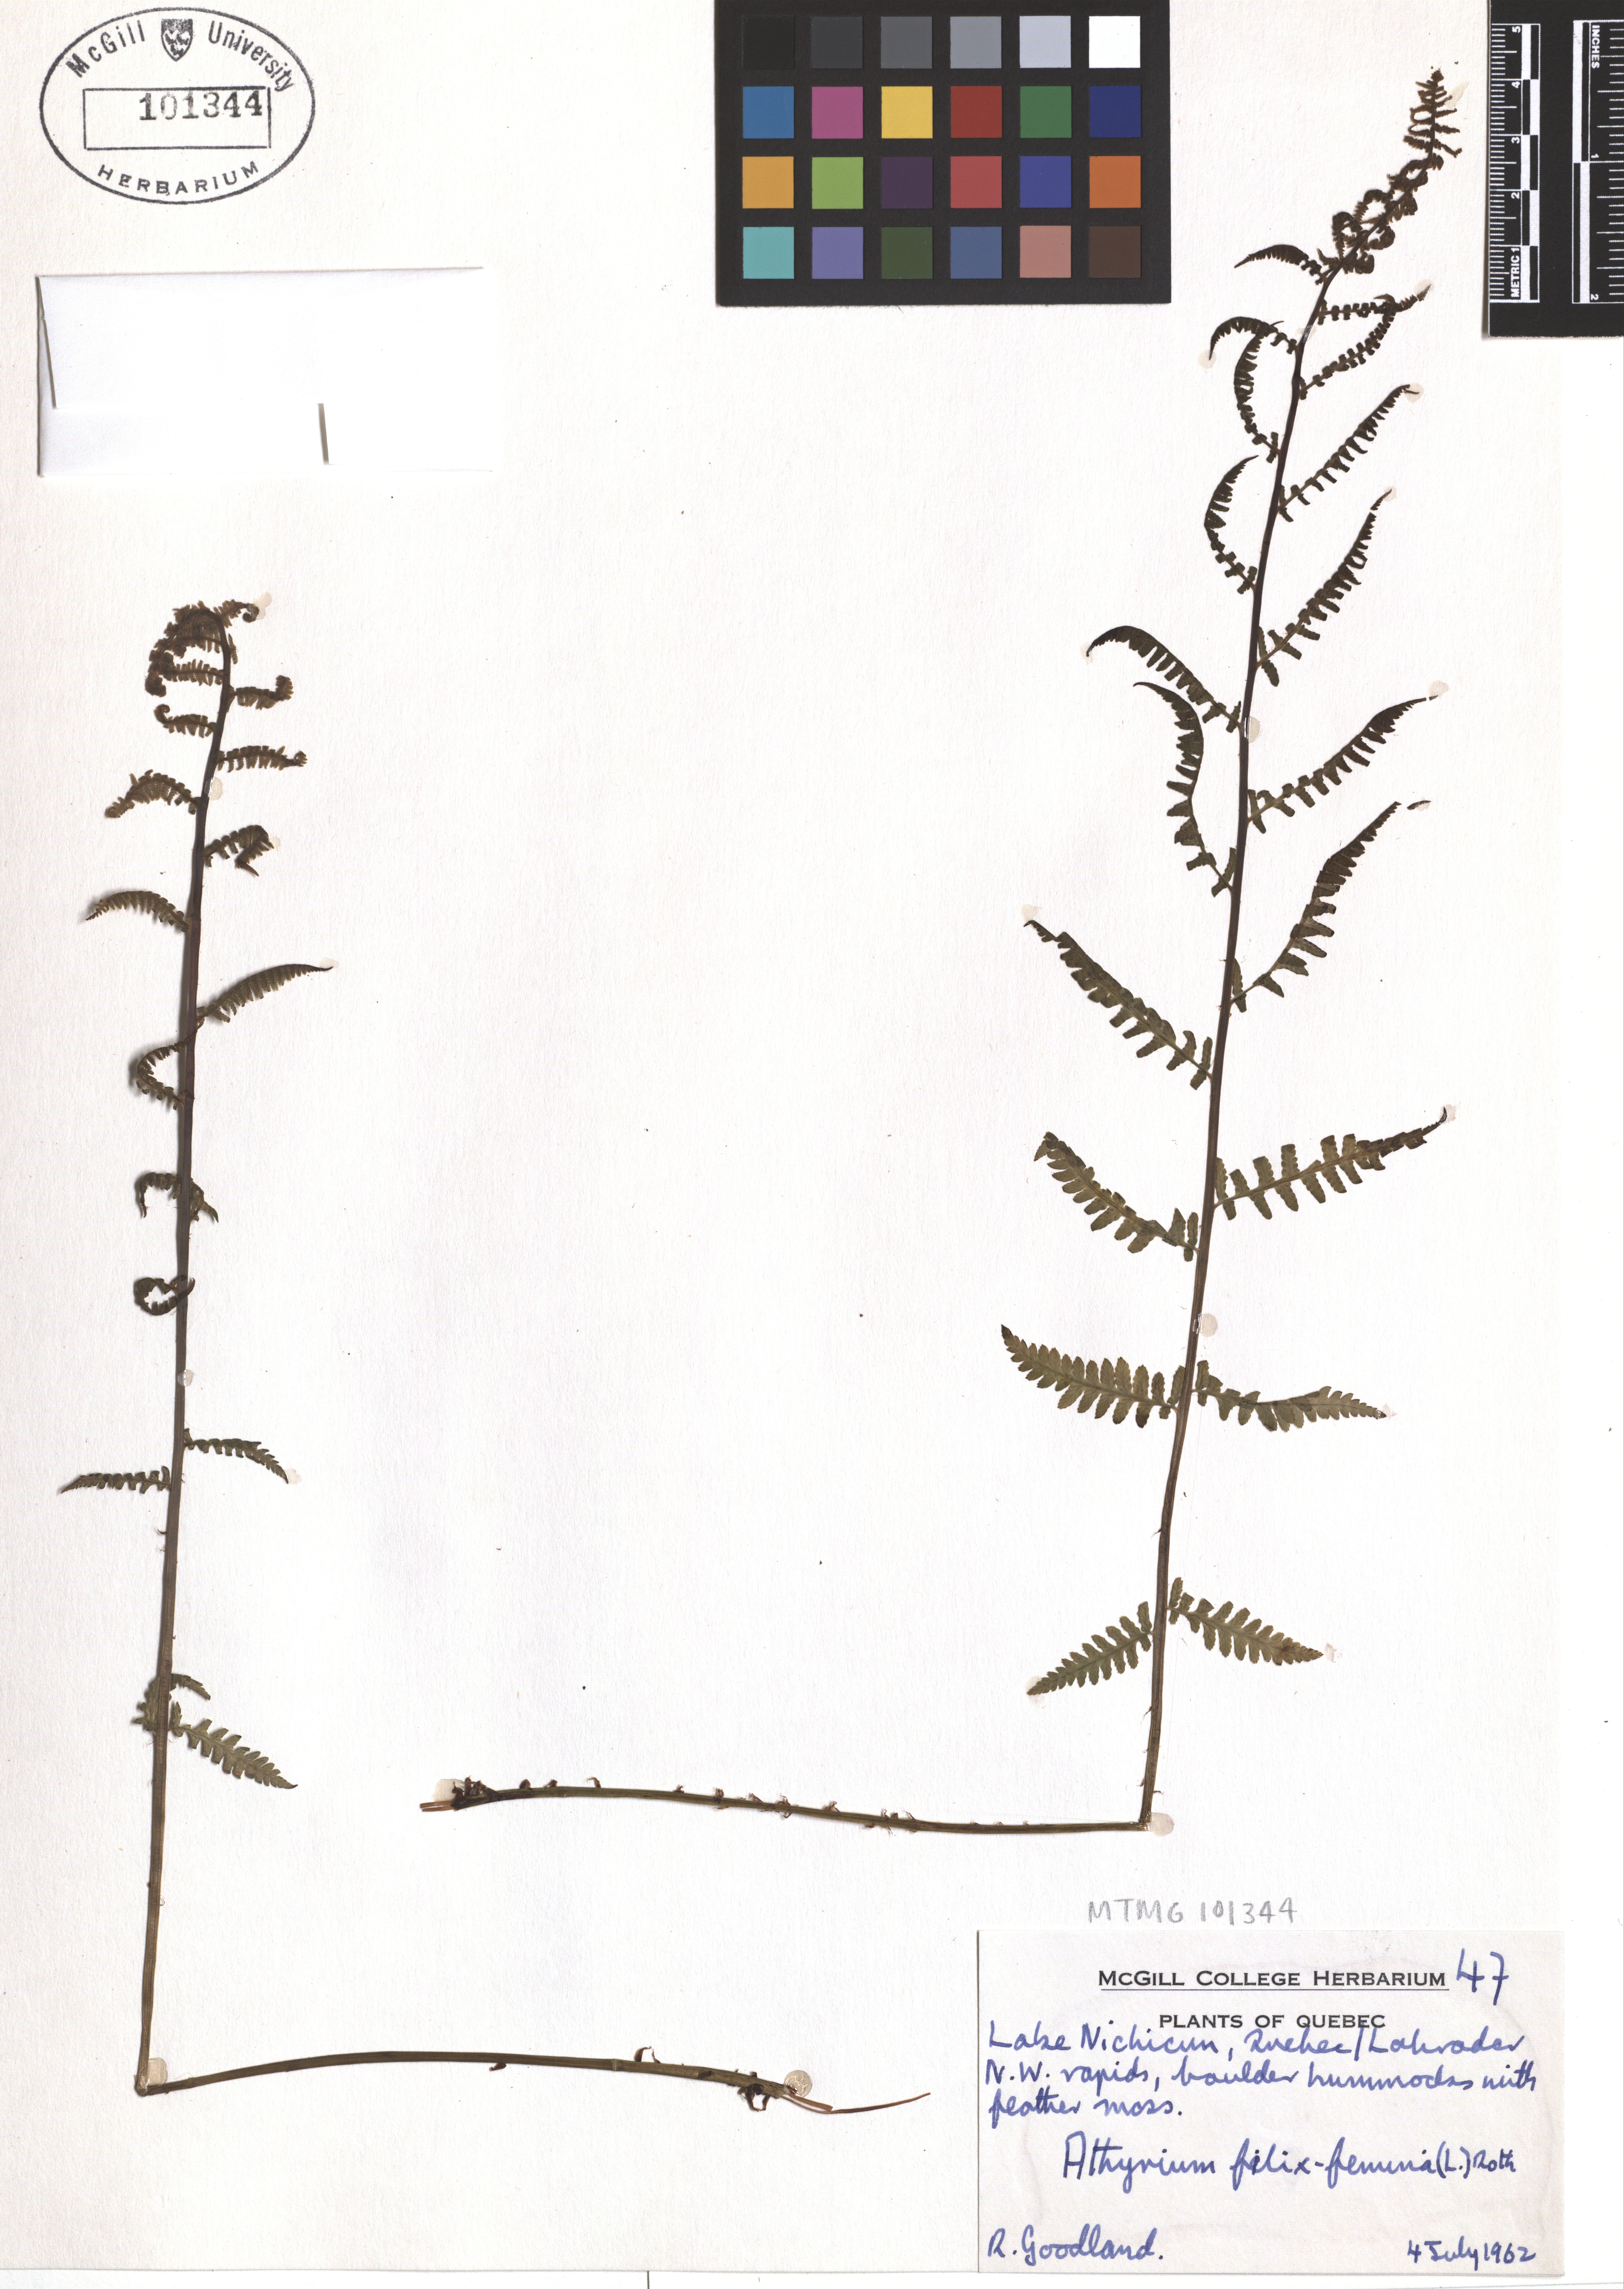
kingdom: Plantae
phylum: Tracheophyta
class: Polypodiopsida
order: Polypodiales
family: Athyriaceae
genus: Athyrium
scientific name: Athyrium filix-femina
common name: Lady fern
